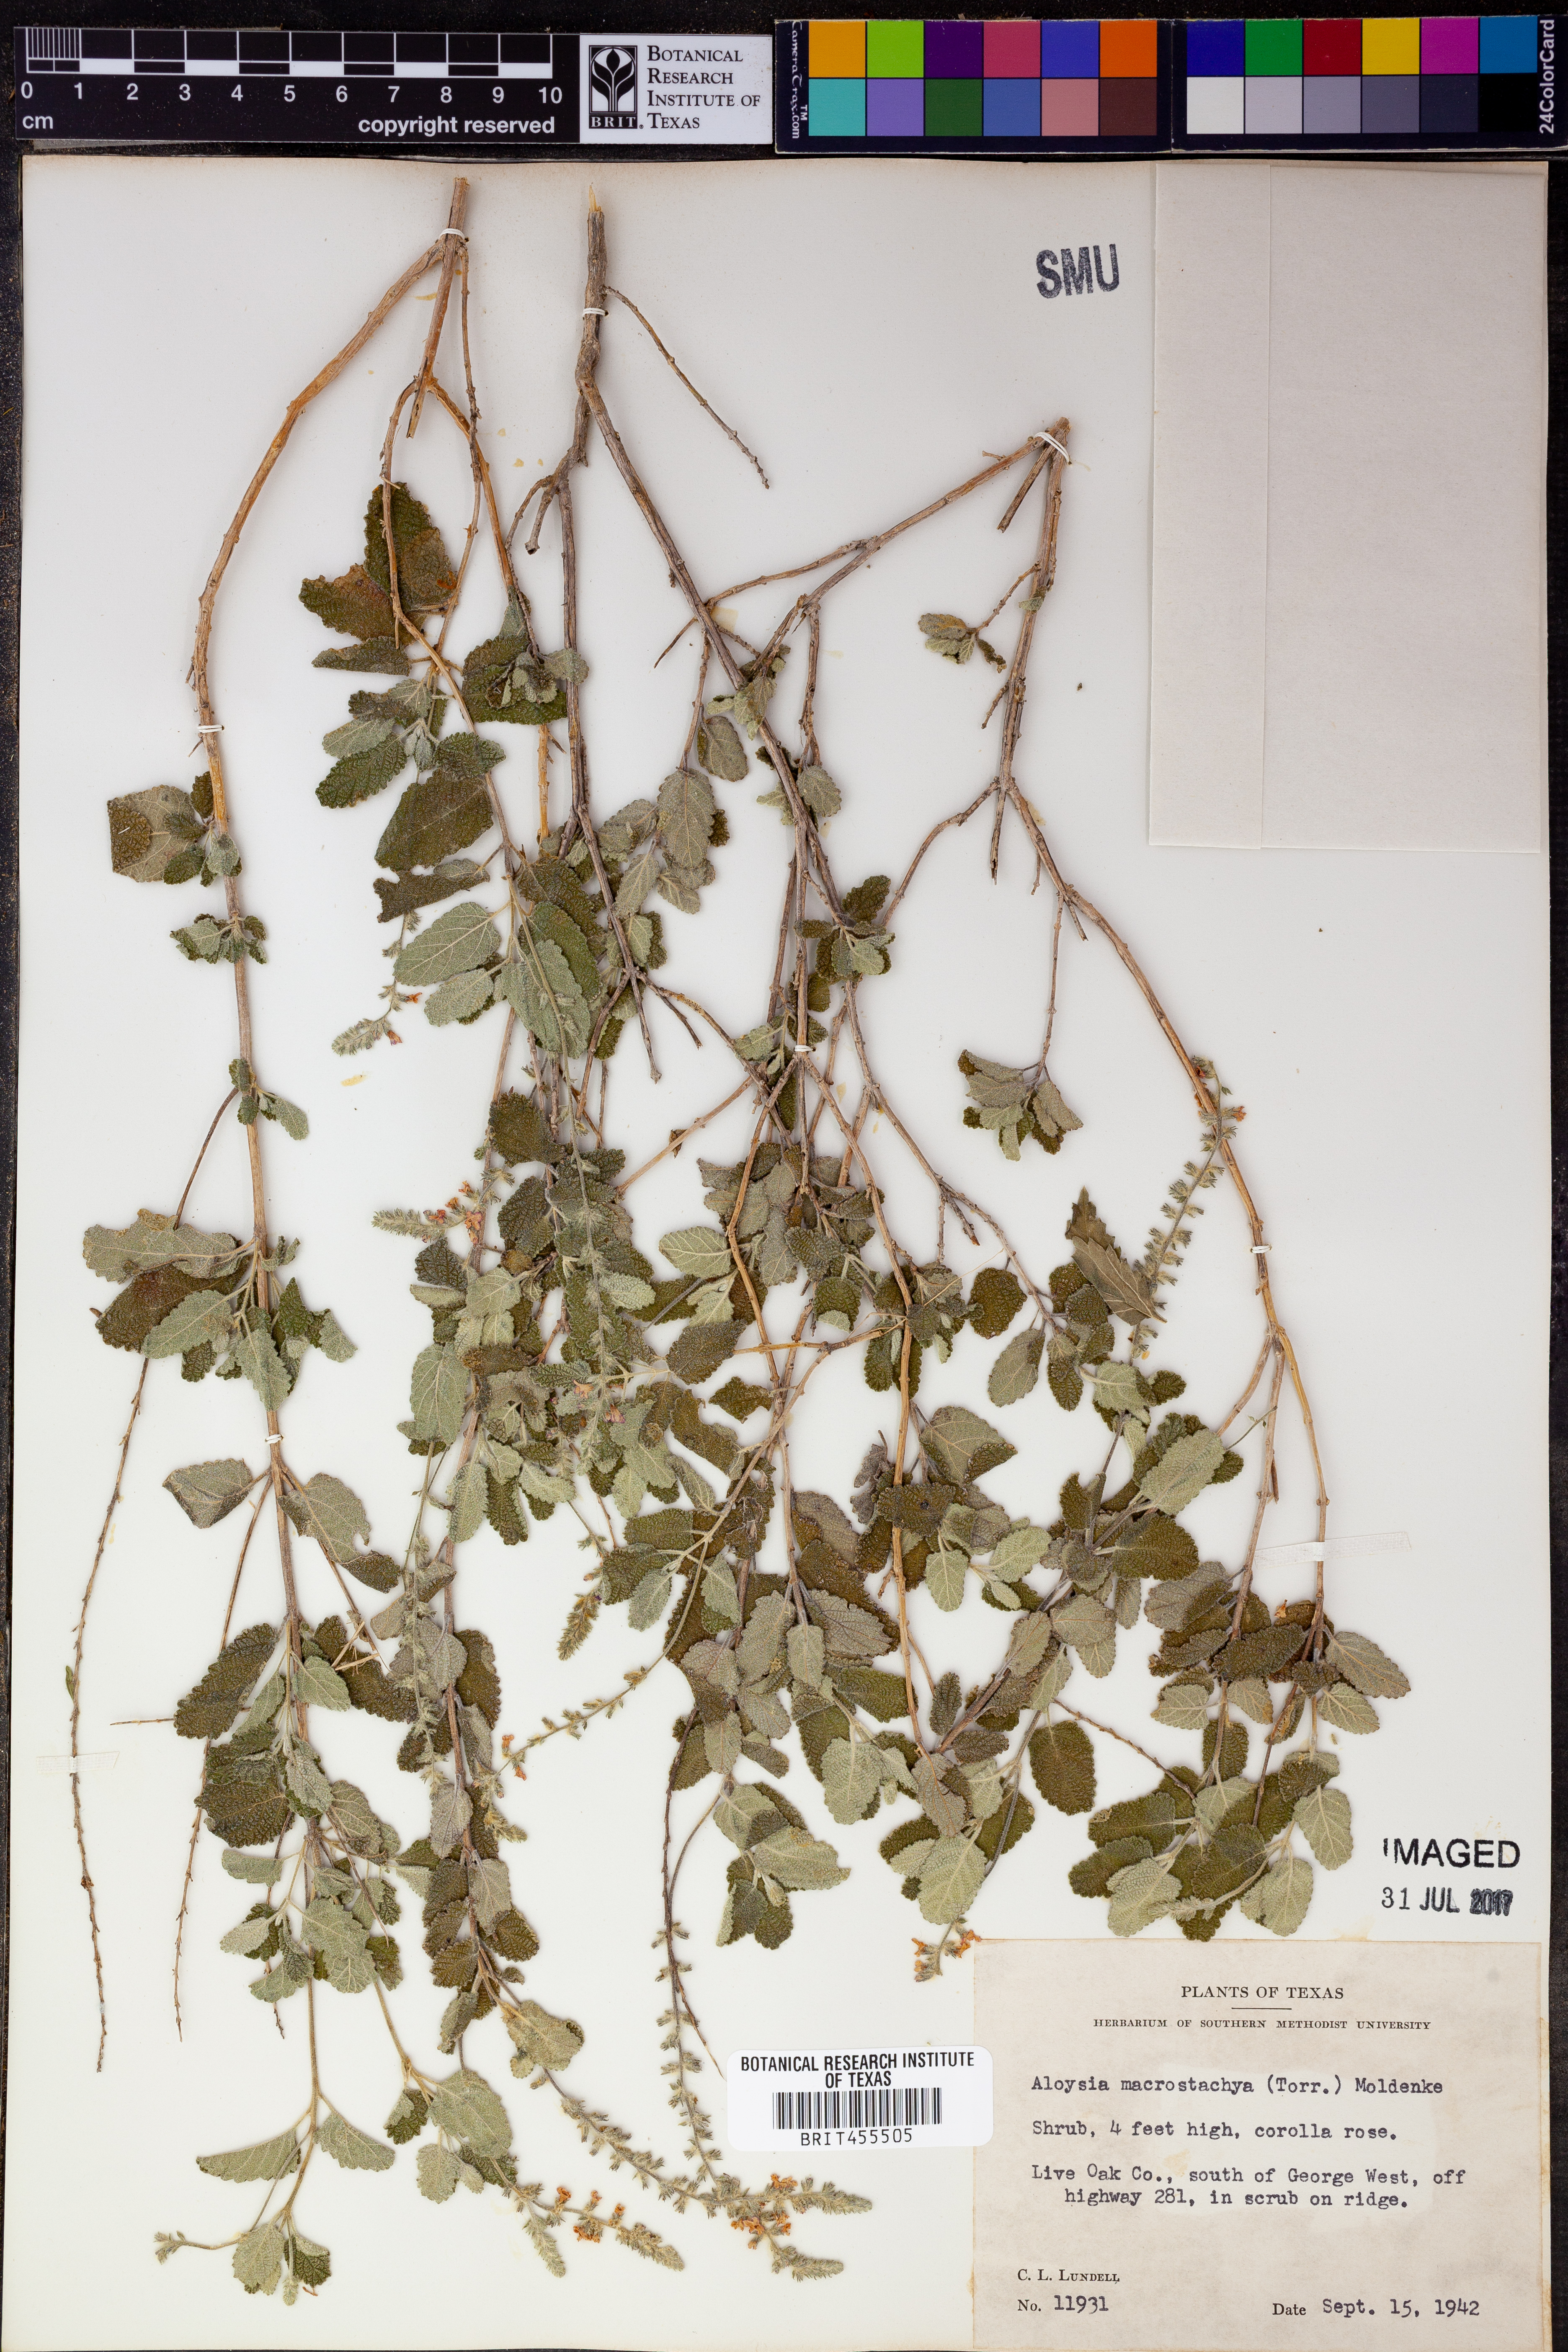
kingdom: Plantae
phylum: Tracheophyta
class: Magnoliopsida
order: Lamiales
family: Verbenaceae
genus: Aloysia
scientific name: Aloysia macrostachya
